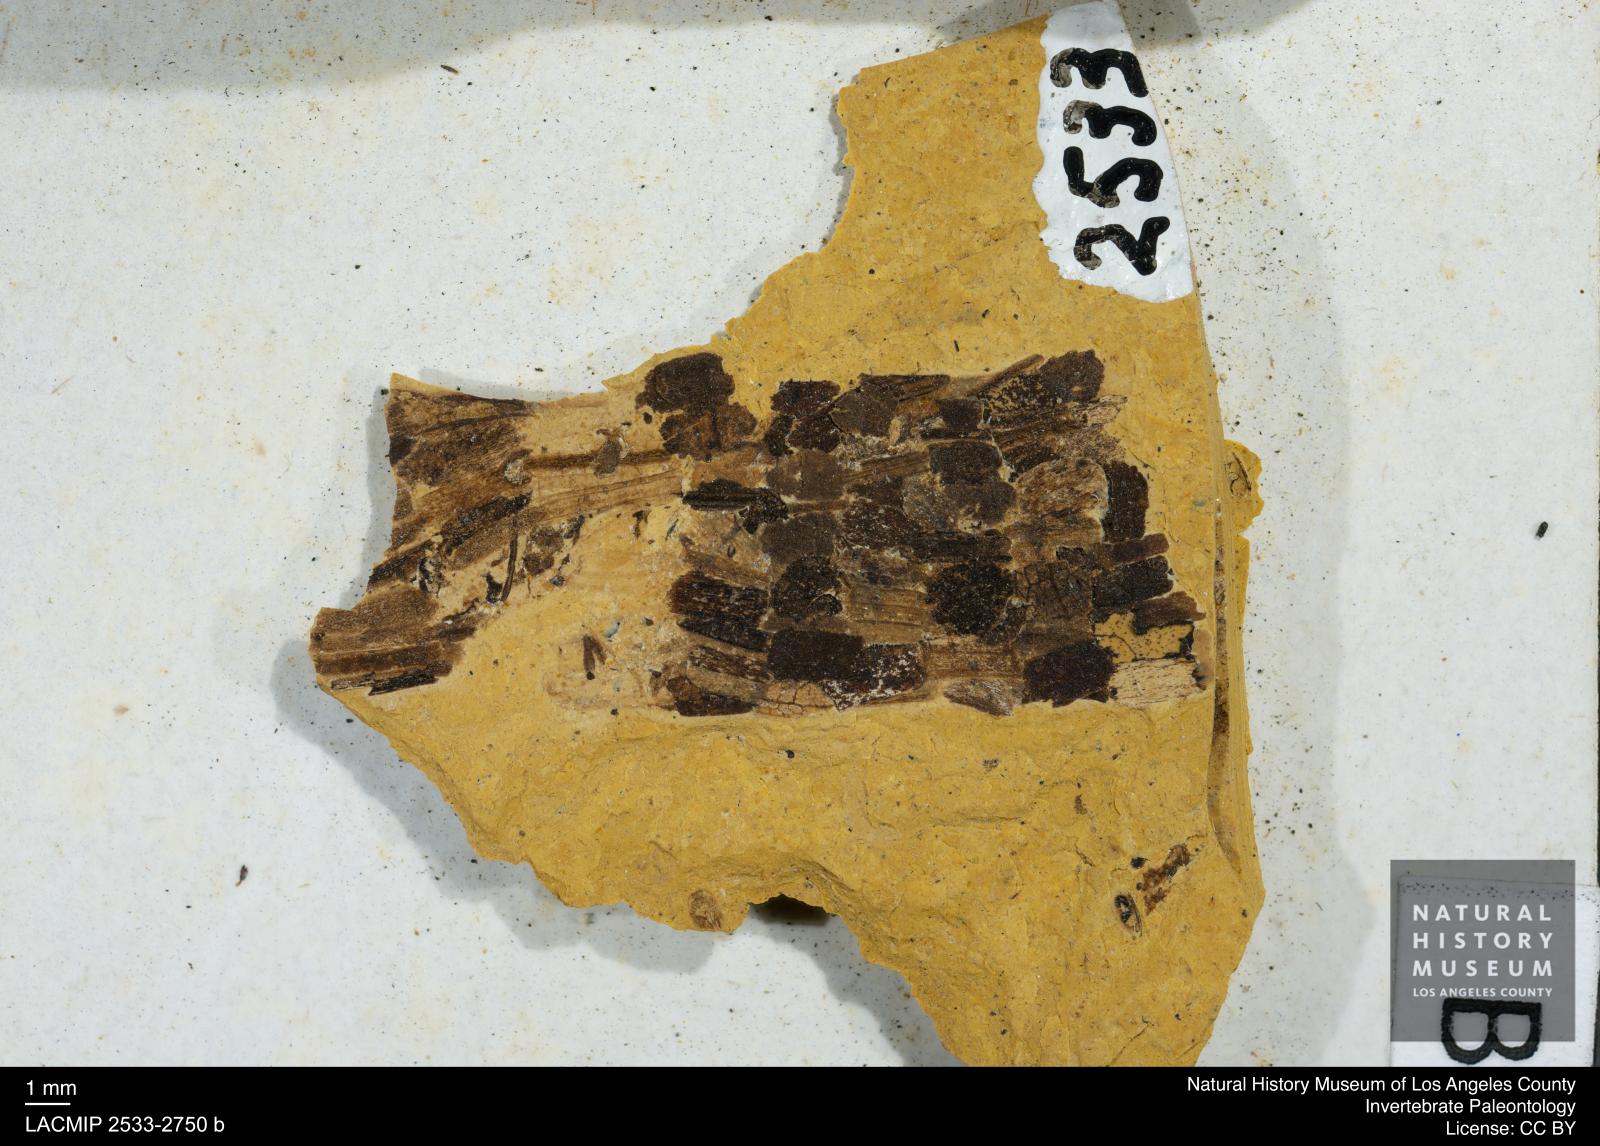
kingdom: Animalia
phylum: Arthropoda
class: Insecta
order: Trichoptera
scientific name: Trichoptera
